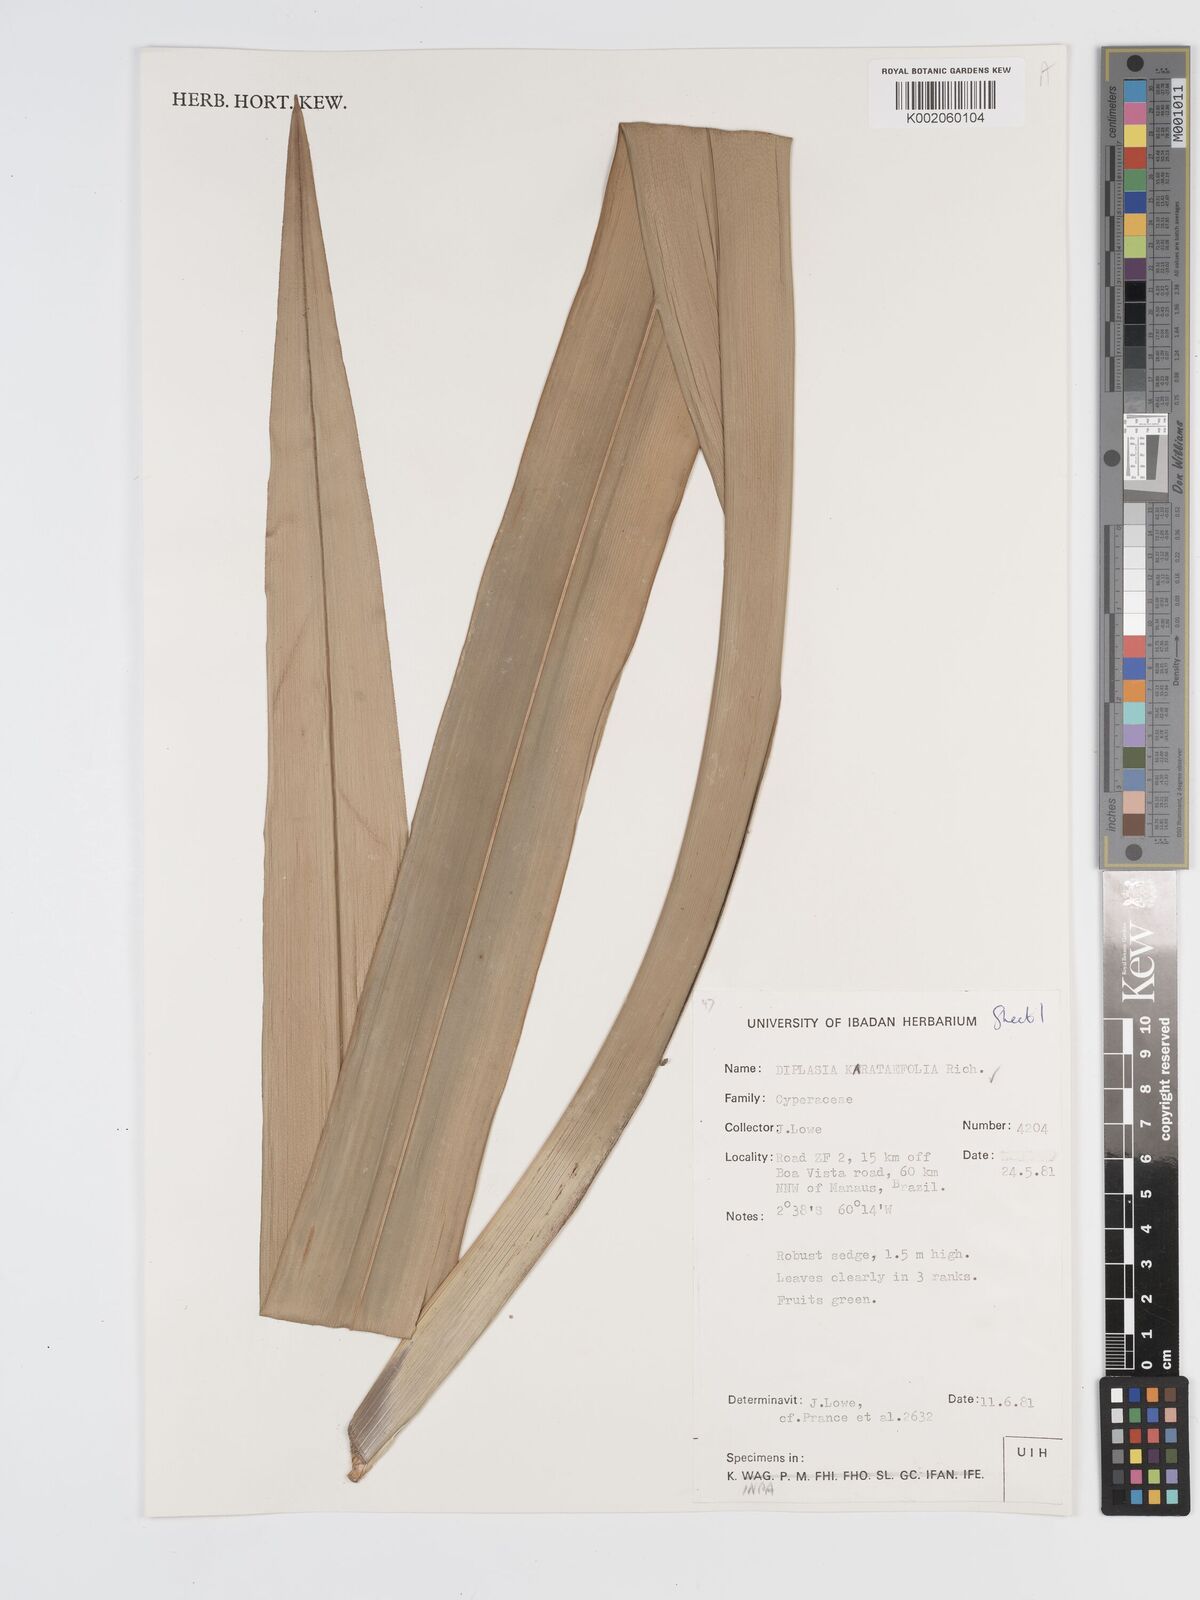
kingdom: Plantae
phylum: Tracheophyta
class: Liliopsida
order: Poales
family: Cyperaceae
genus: Diplasia
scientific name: Diplasia karatifolia
